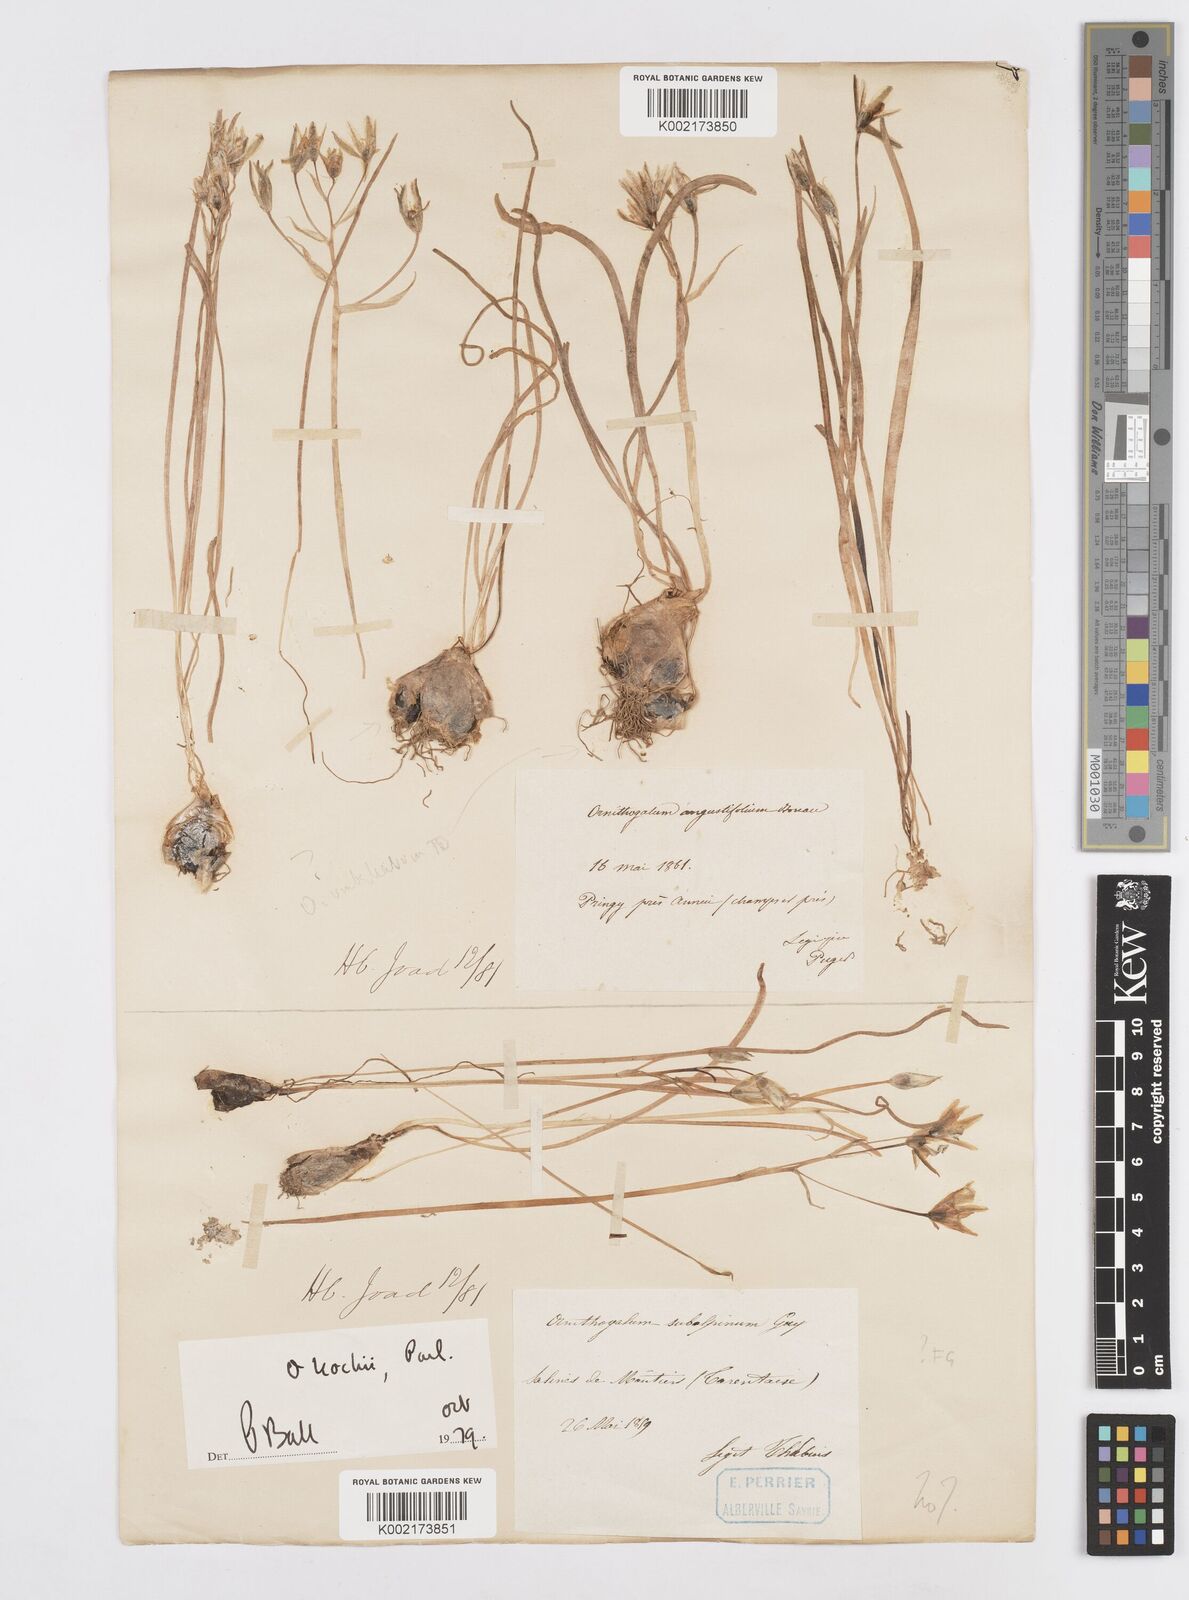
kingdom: Plantae
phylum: Tracheophyta
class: Liliopsida
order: Asparagales
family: Asparagaceae
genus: Ornithogalum
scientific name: Ornithogalum orthophyllum
